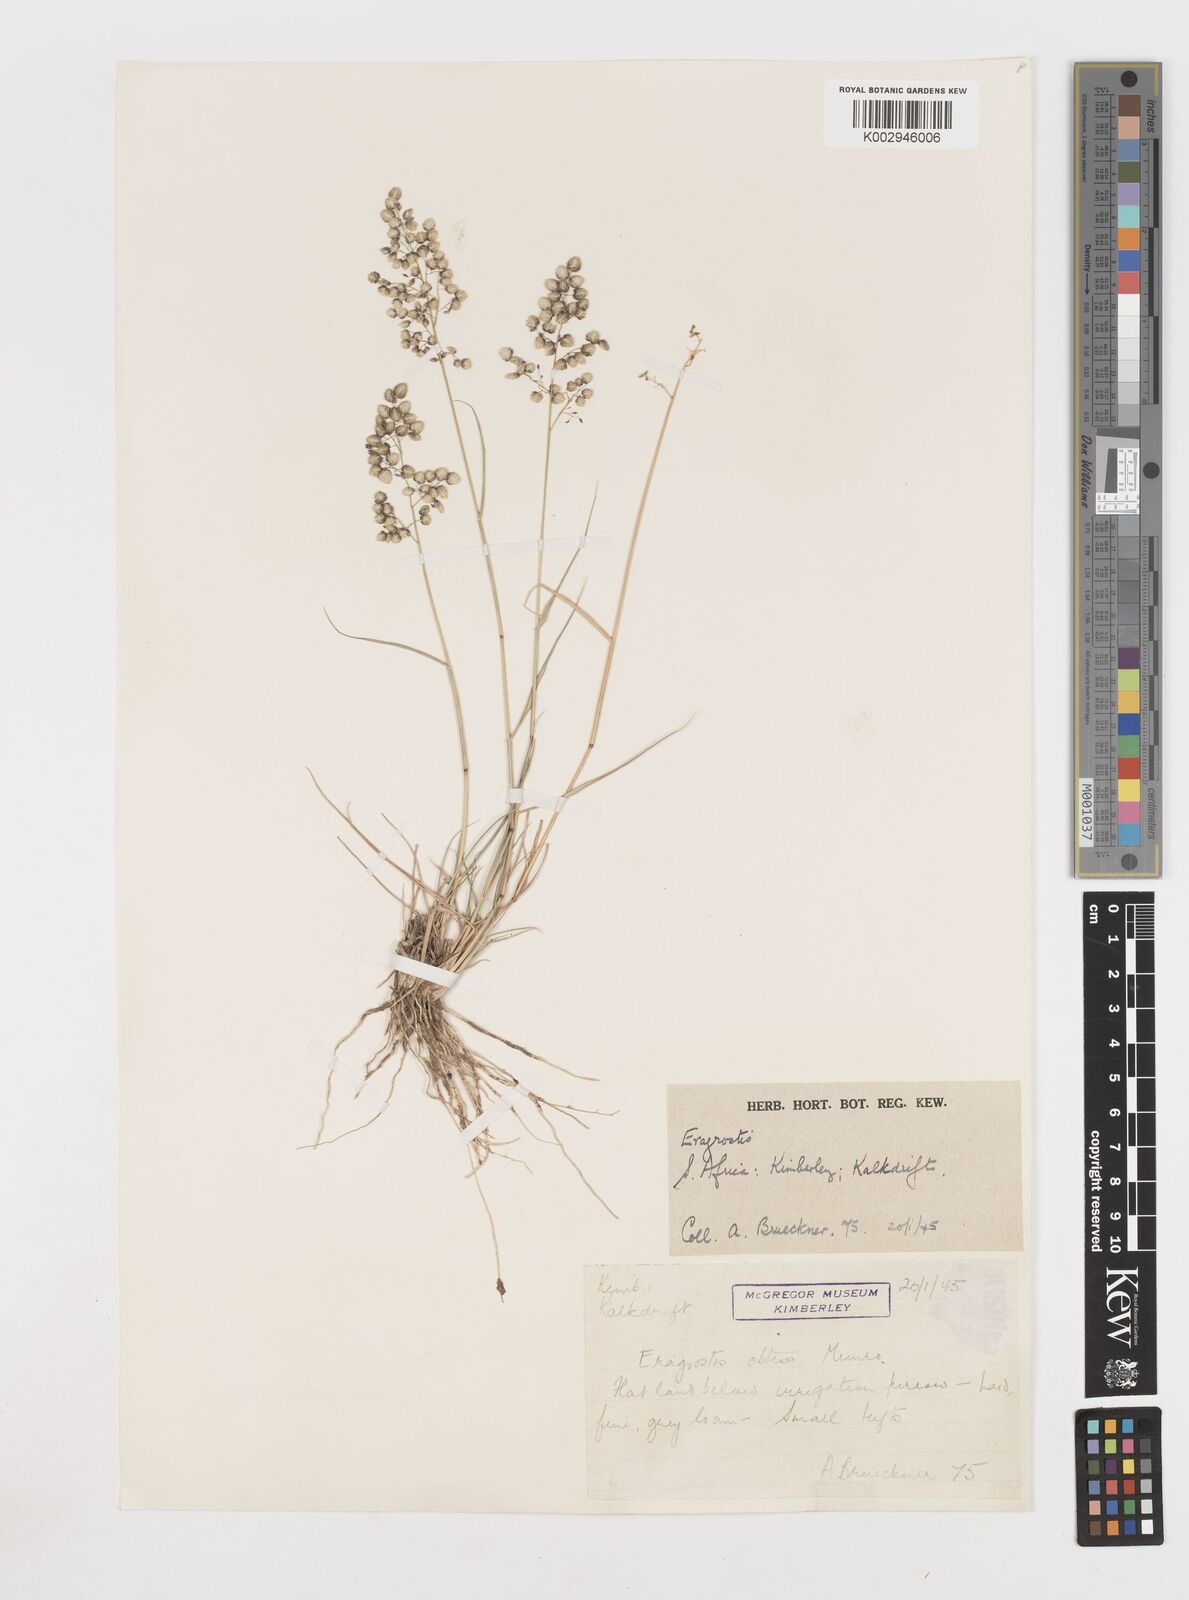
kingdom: Plantae
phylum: Tracheophyta
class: Liliopsida
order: Poales
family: Poaceae
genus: Eragrostis
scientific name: Eragrostis obtusa
